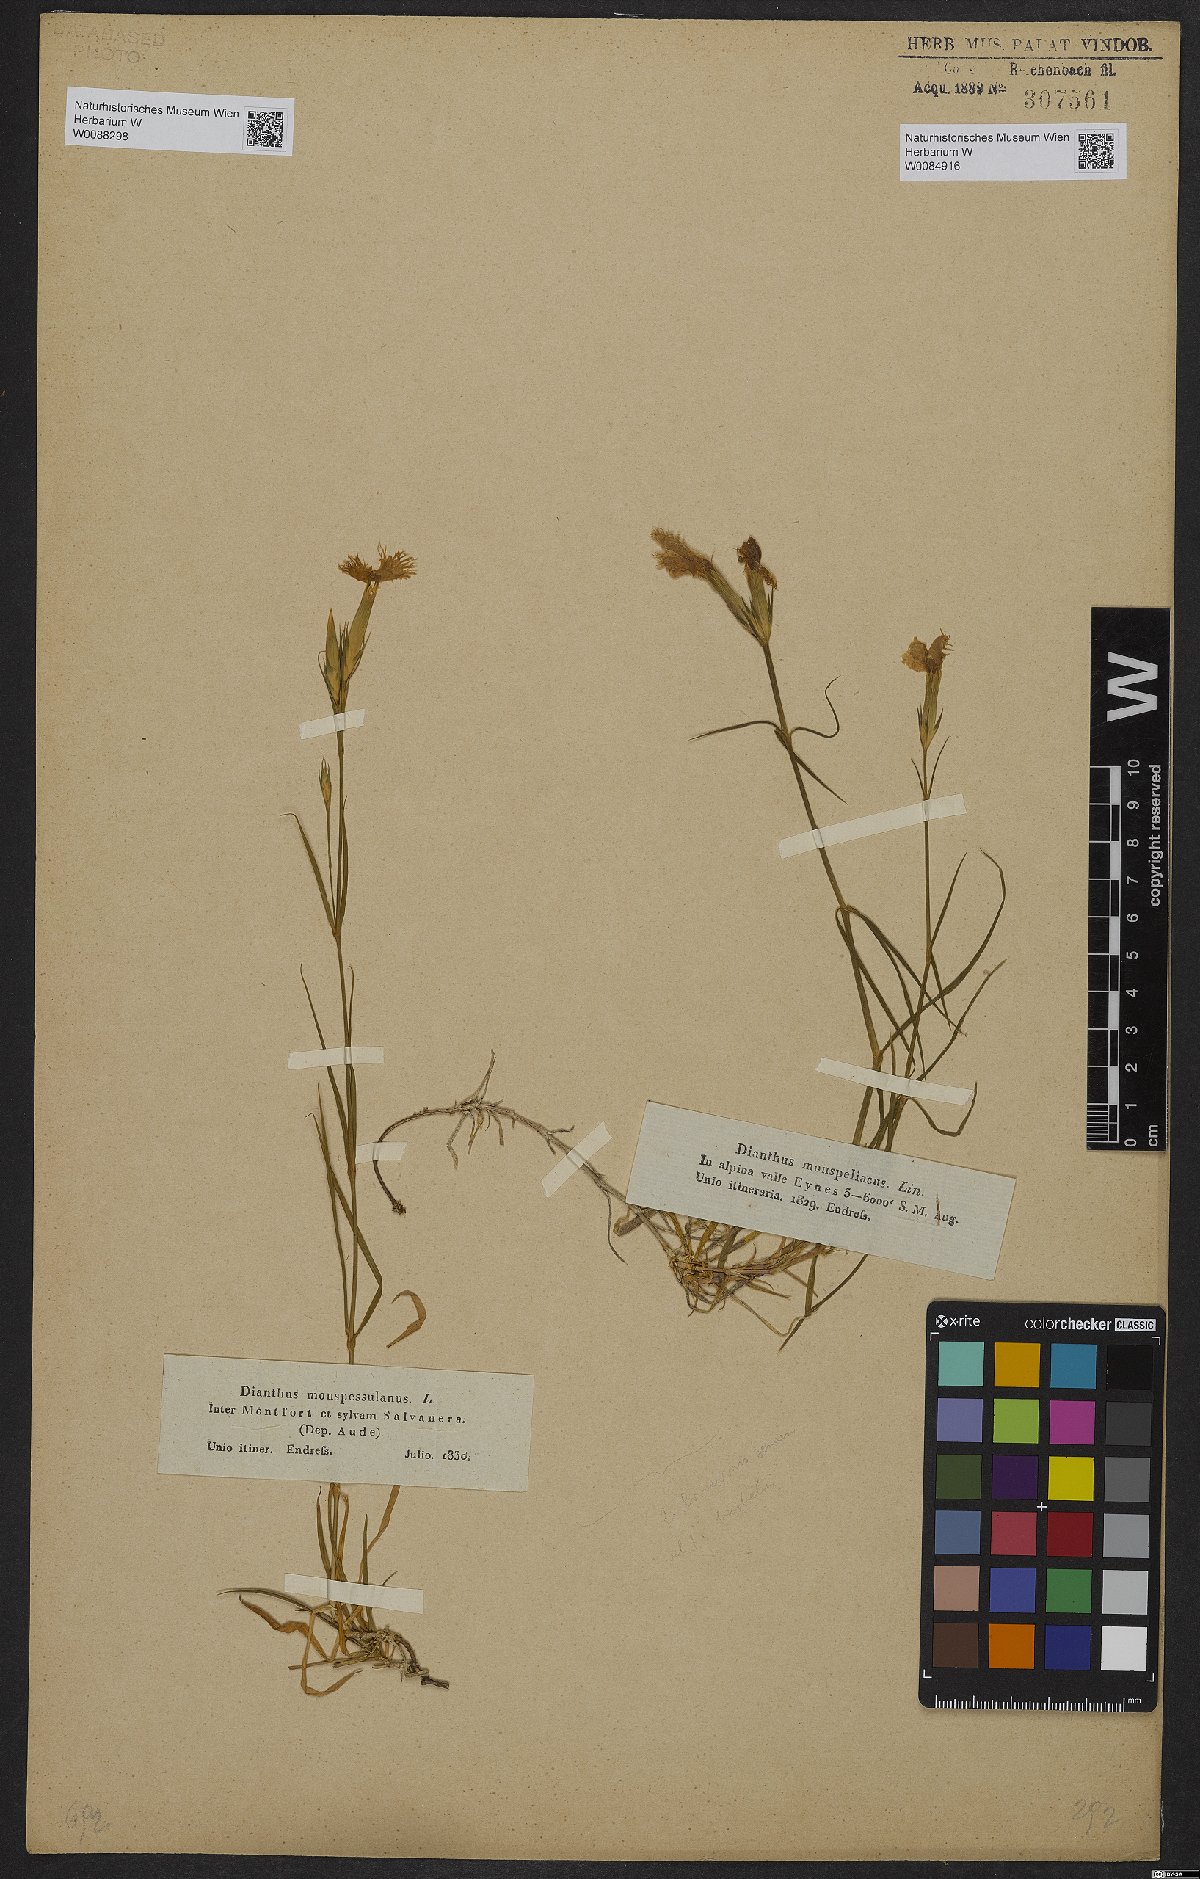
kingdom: Plantae
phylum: Tracheophyta
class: Magnoliopsida
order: Caryophyllales
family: Caryophyllaceae
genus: Dianthus
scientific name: Dianthus hyssopifolius
